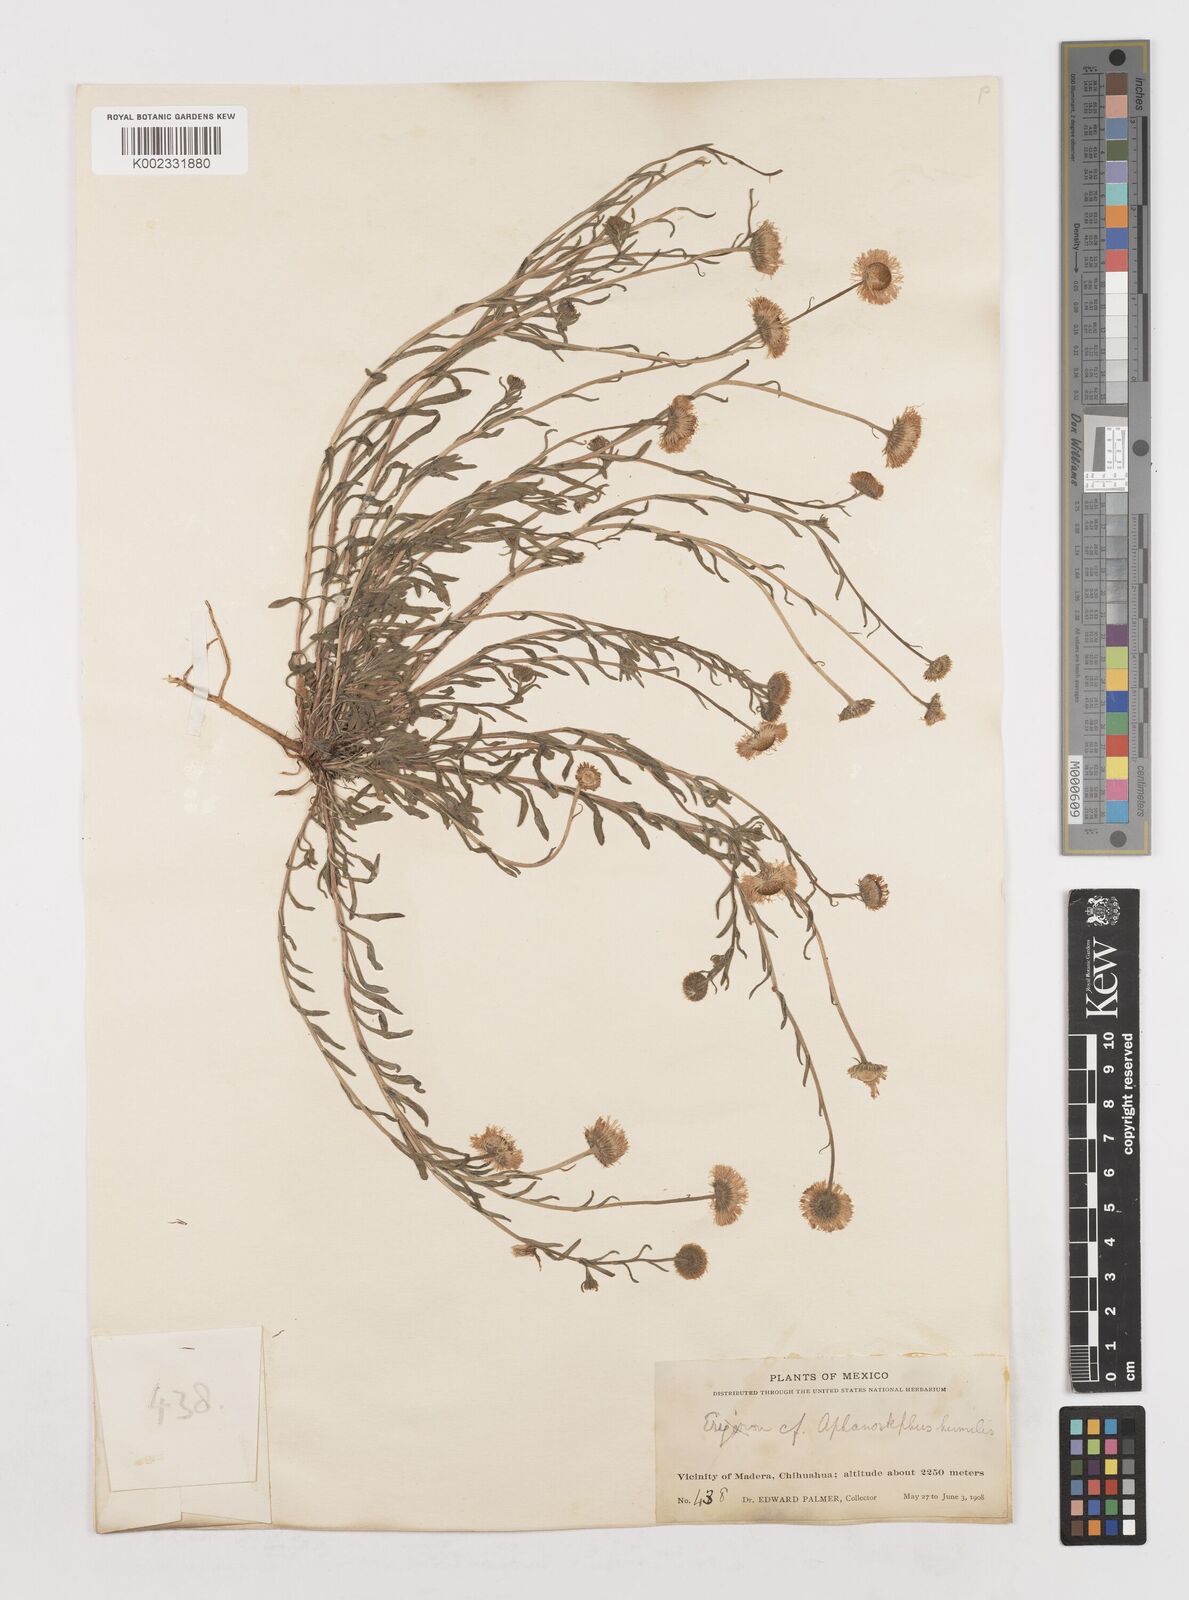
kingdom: Plantae
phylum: Tracheophyta
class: Magnoliopsida
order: Asterales
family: Asteraceae
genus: Erigeron
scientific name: Erigeron
